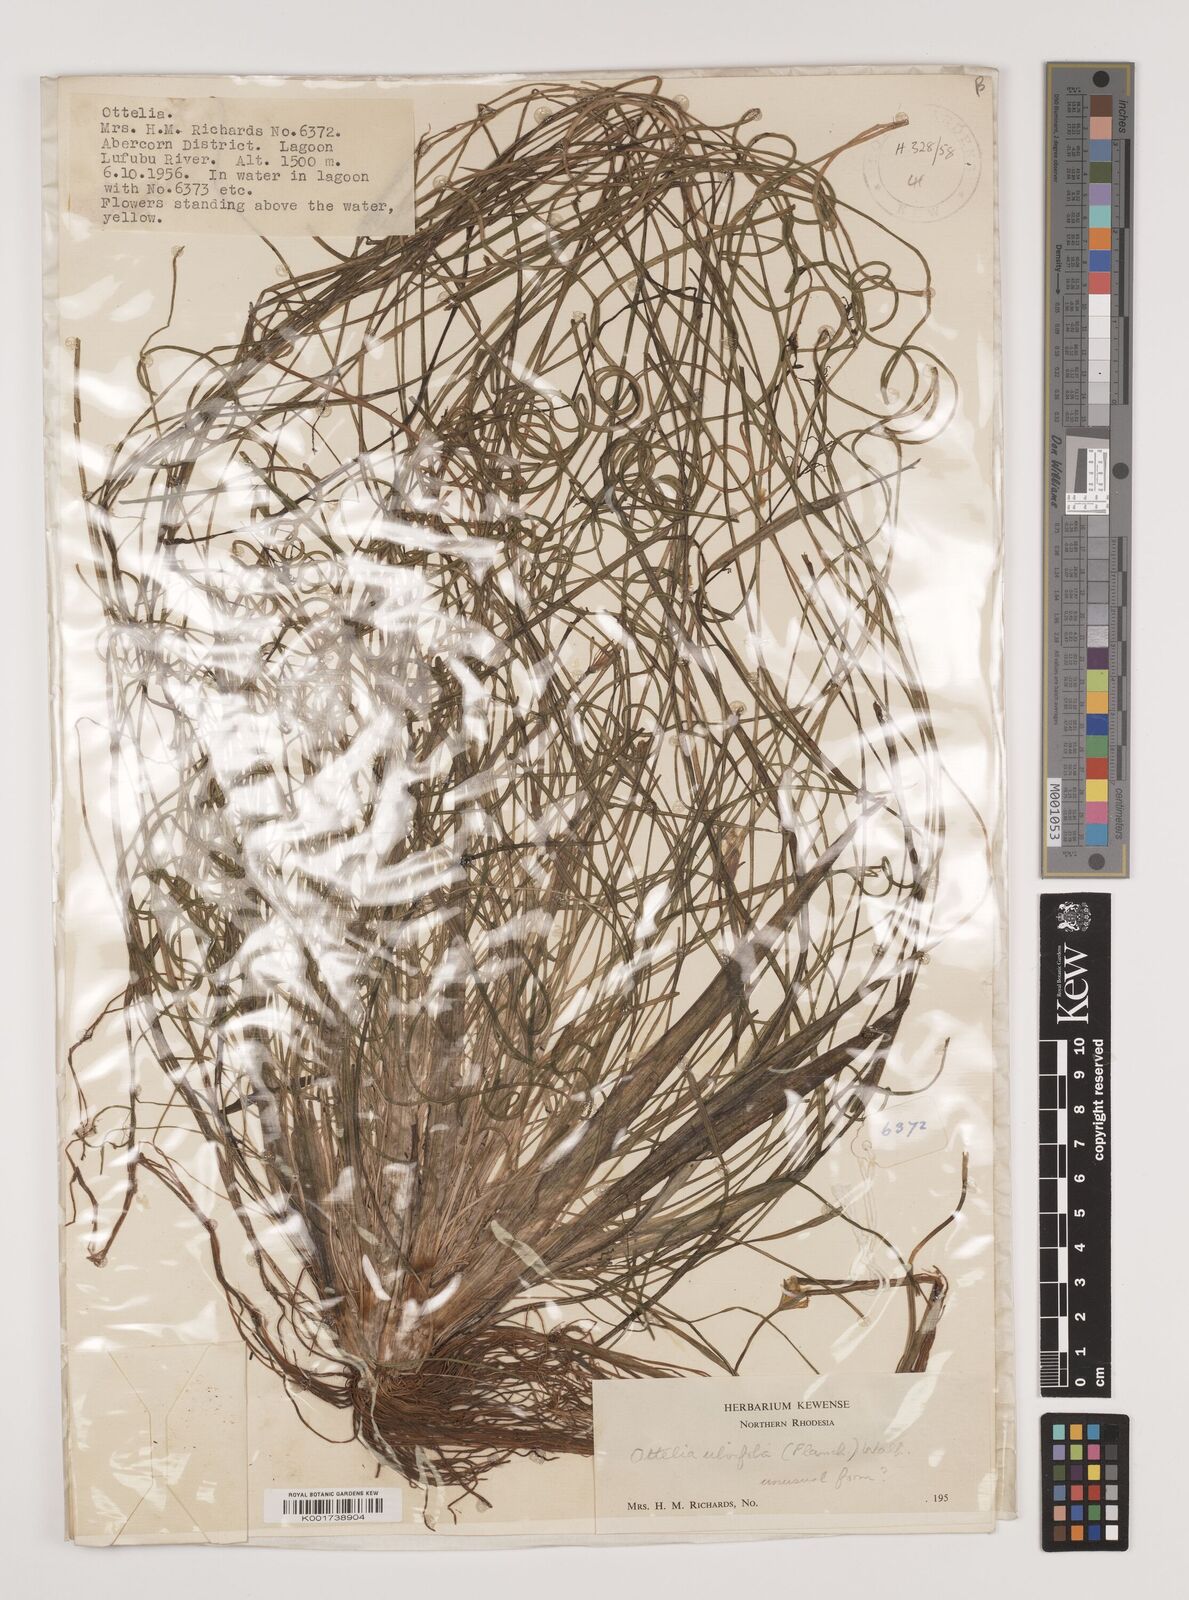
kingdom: Plantae
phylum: Tracheophyta
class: Liliopsida
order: Alismatales
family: Hydrocharitaceae
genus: Ottelia
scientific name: Ottelia ulvifolia
